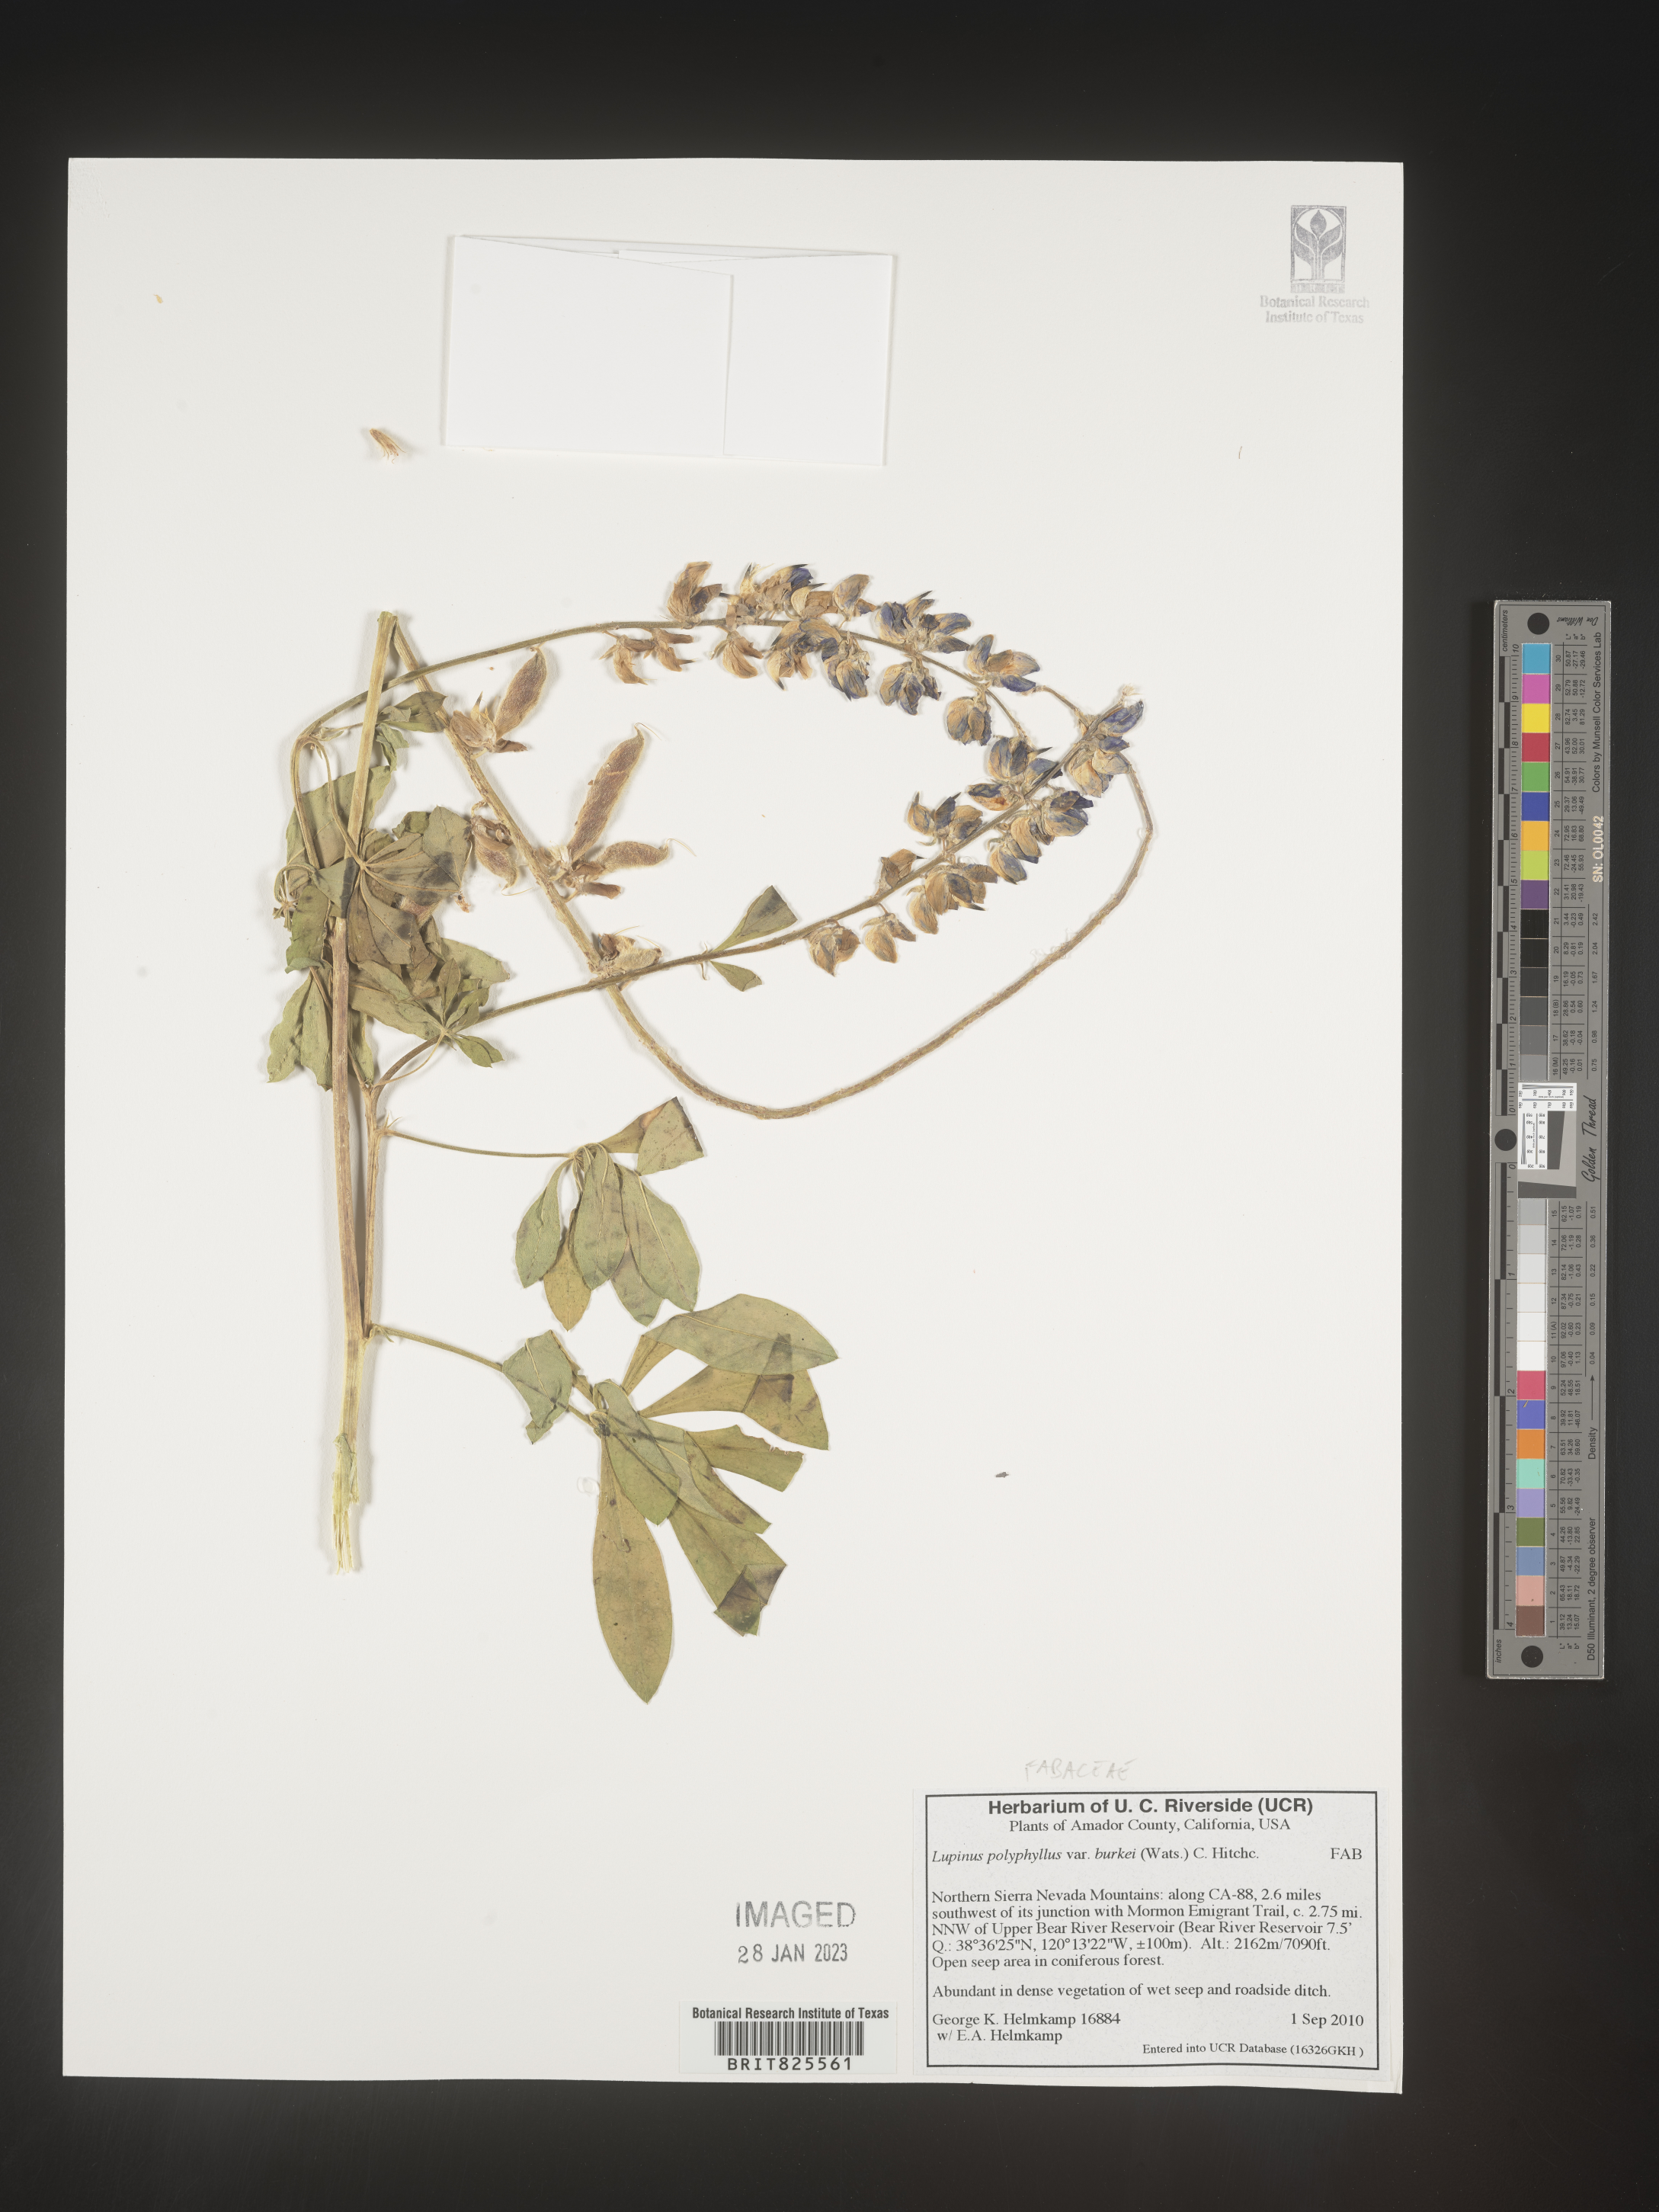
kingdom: Plantae
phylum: Tracheophyta
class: Magnoliopsida
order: Fabales
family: Fabaceae
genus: Lupinus
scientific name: Lupinus
